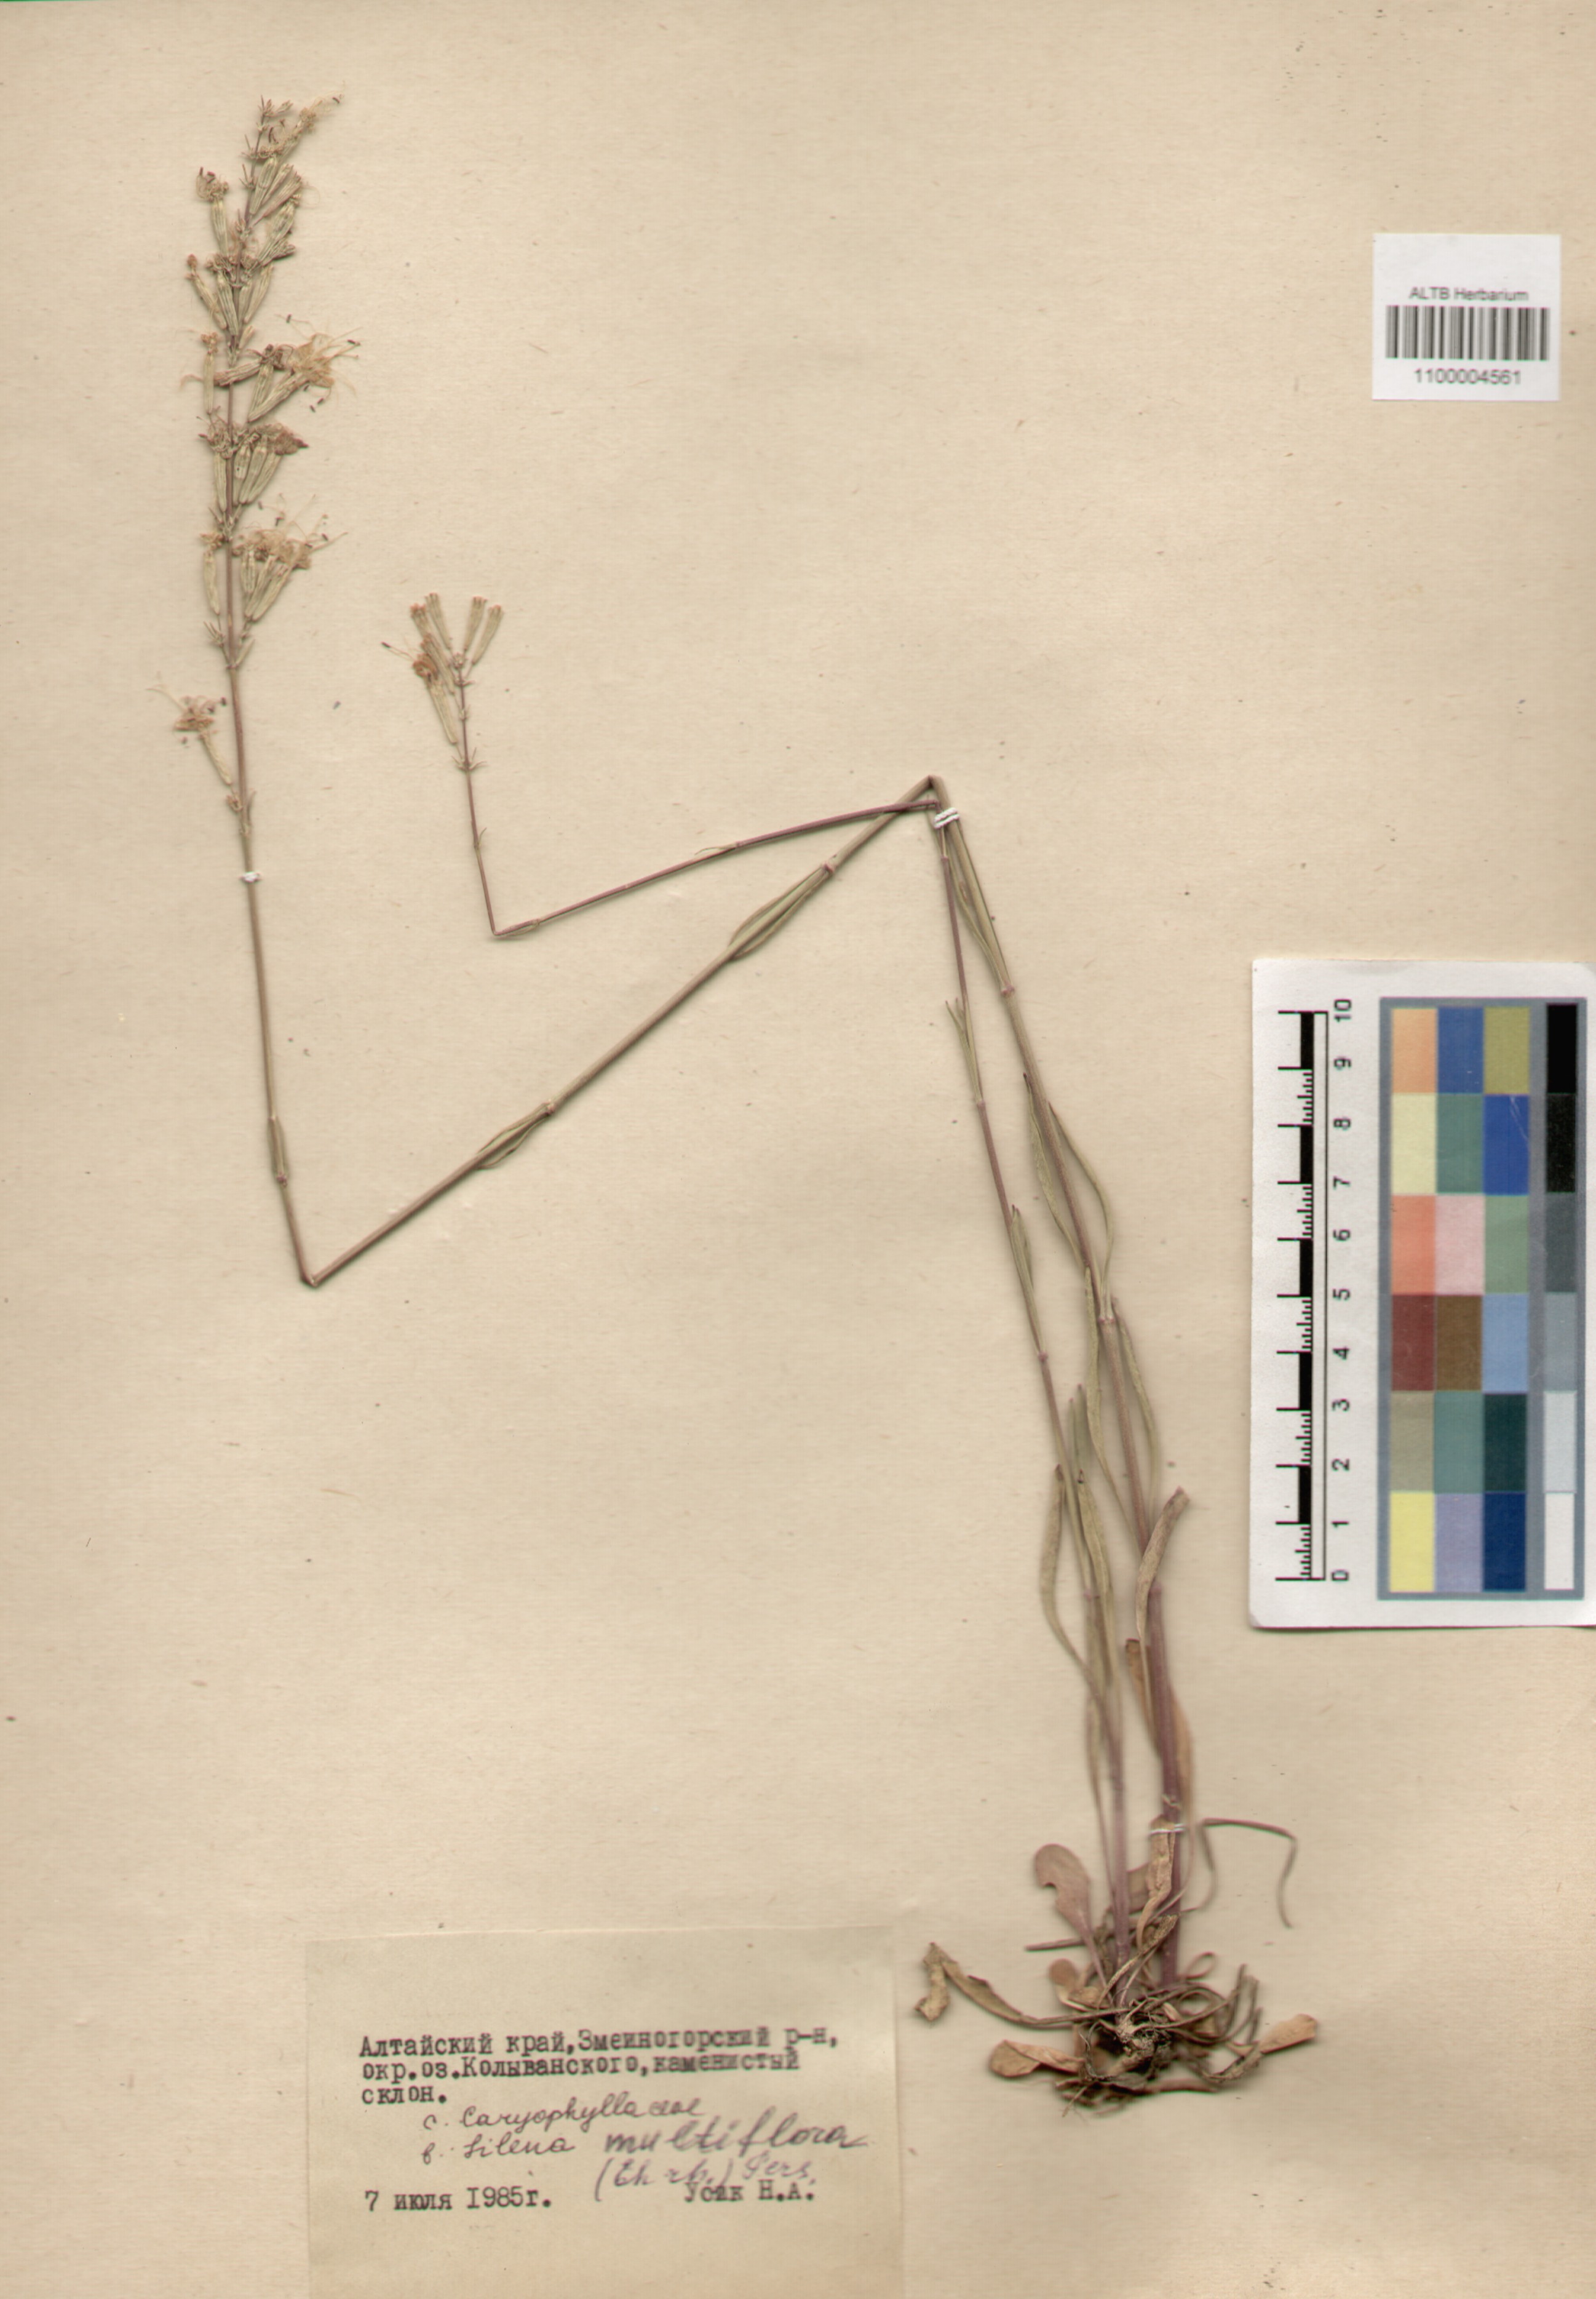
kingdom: Plantae
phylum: Tracheophyta
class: Magnoliopsida
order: Caryophyllales
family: Caryophyllaceae
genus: Silene
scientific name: Silene multiflora
